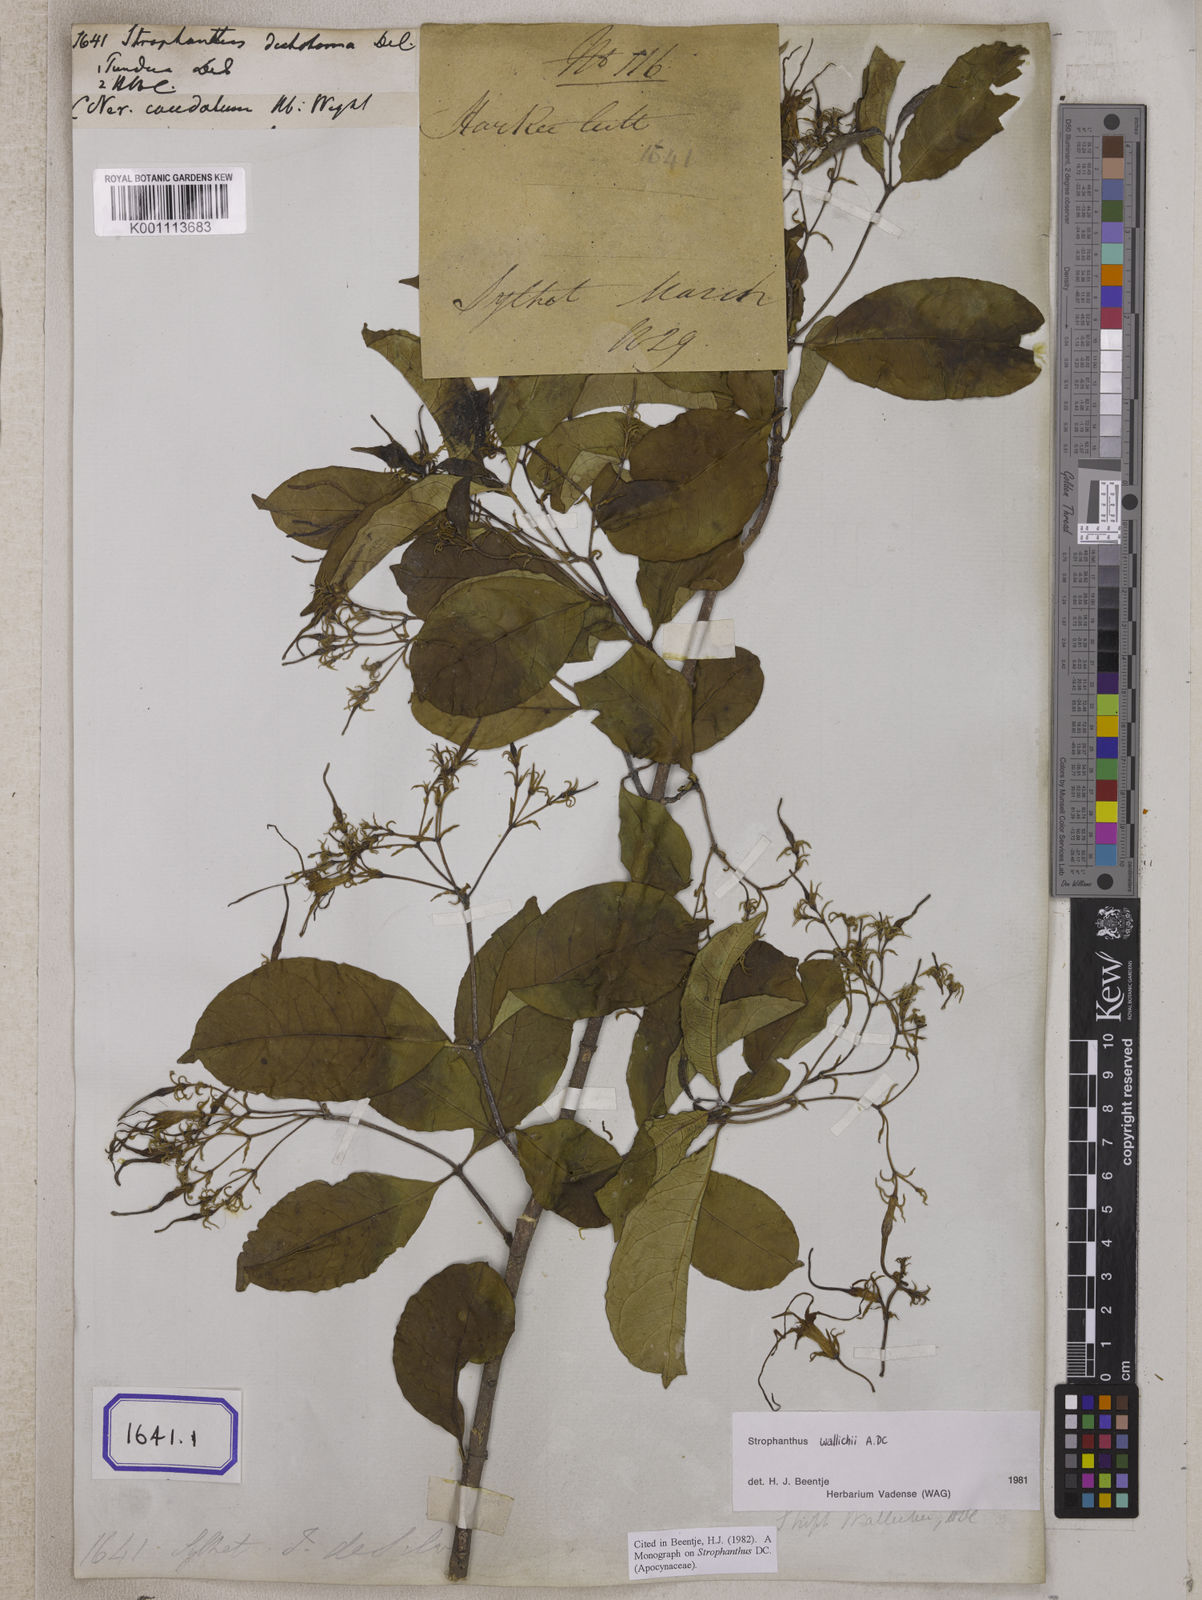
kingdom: Plantae
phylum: Tracheophyta
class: Magnoliopsida
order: Gentianales
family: Apocynaceae
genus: Strophanthus
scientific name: Strophanthus caudatus
